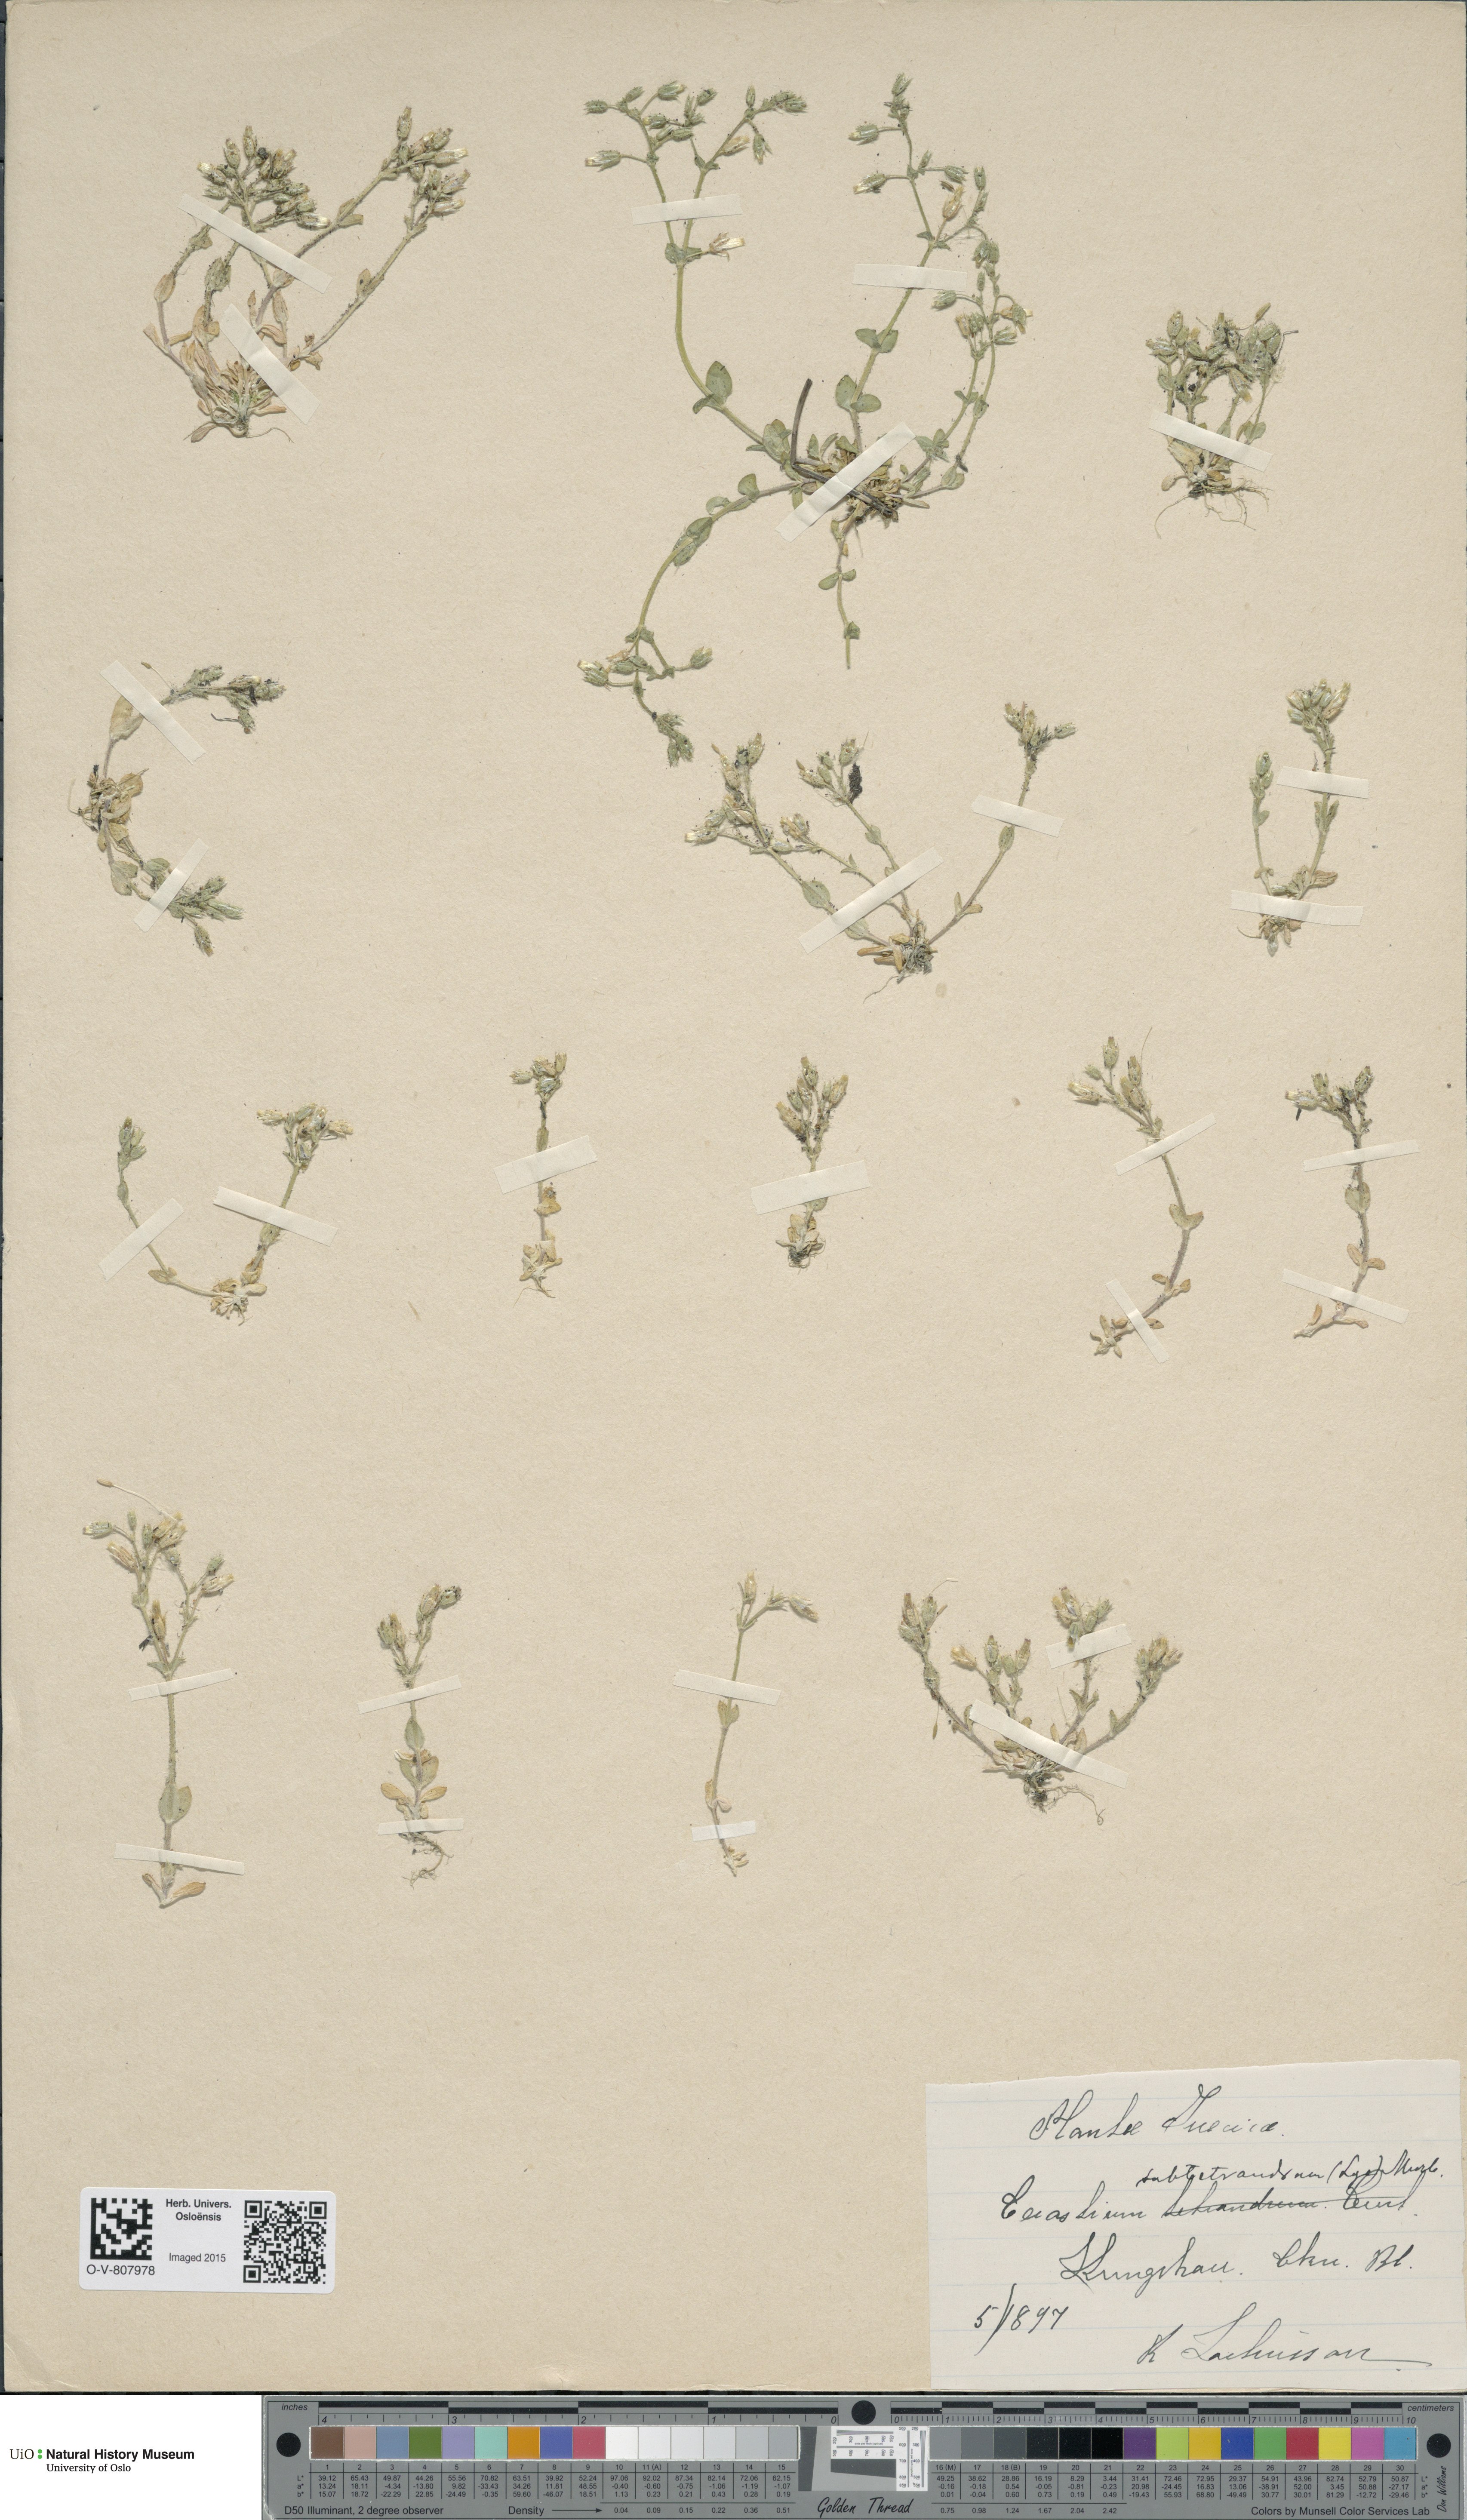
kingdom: Plantae
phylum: Tracheophyta
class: Magnoliopsida
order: Caryophyllales
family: Caryophyllaceae
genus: Cerastium
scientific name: Cerastium subtetrandrum
